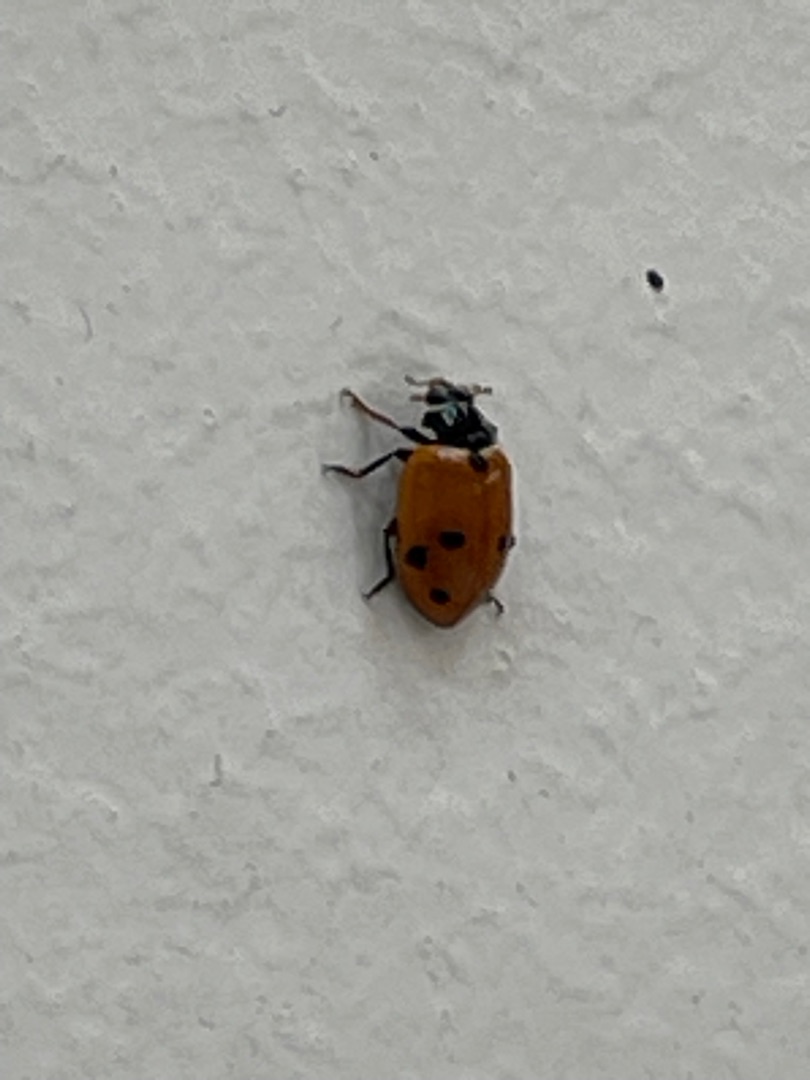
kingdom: Animalia
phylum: Arthropoda
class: Insecta
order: Coleoptera
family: Coccinellidae
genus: Hippodamia
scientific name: Hippodamia variegata
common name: Adonis' mariehøne
